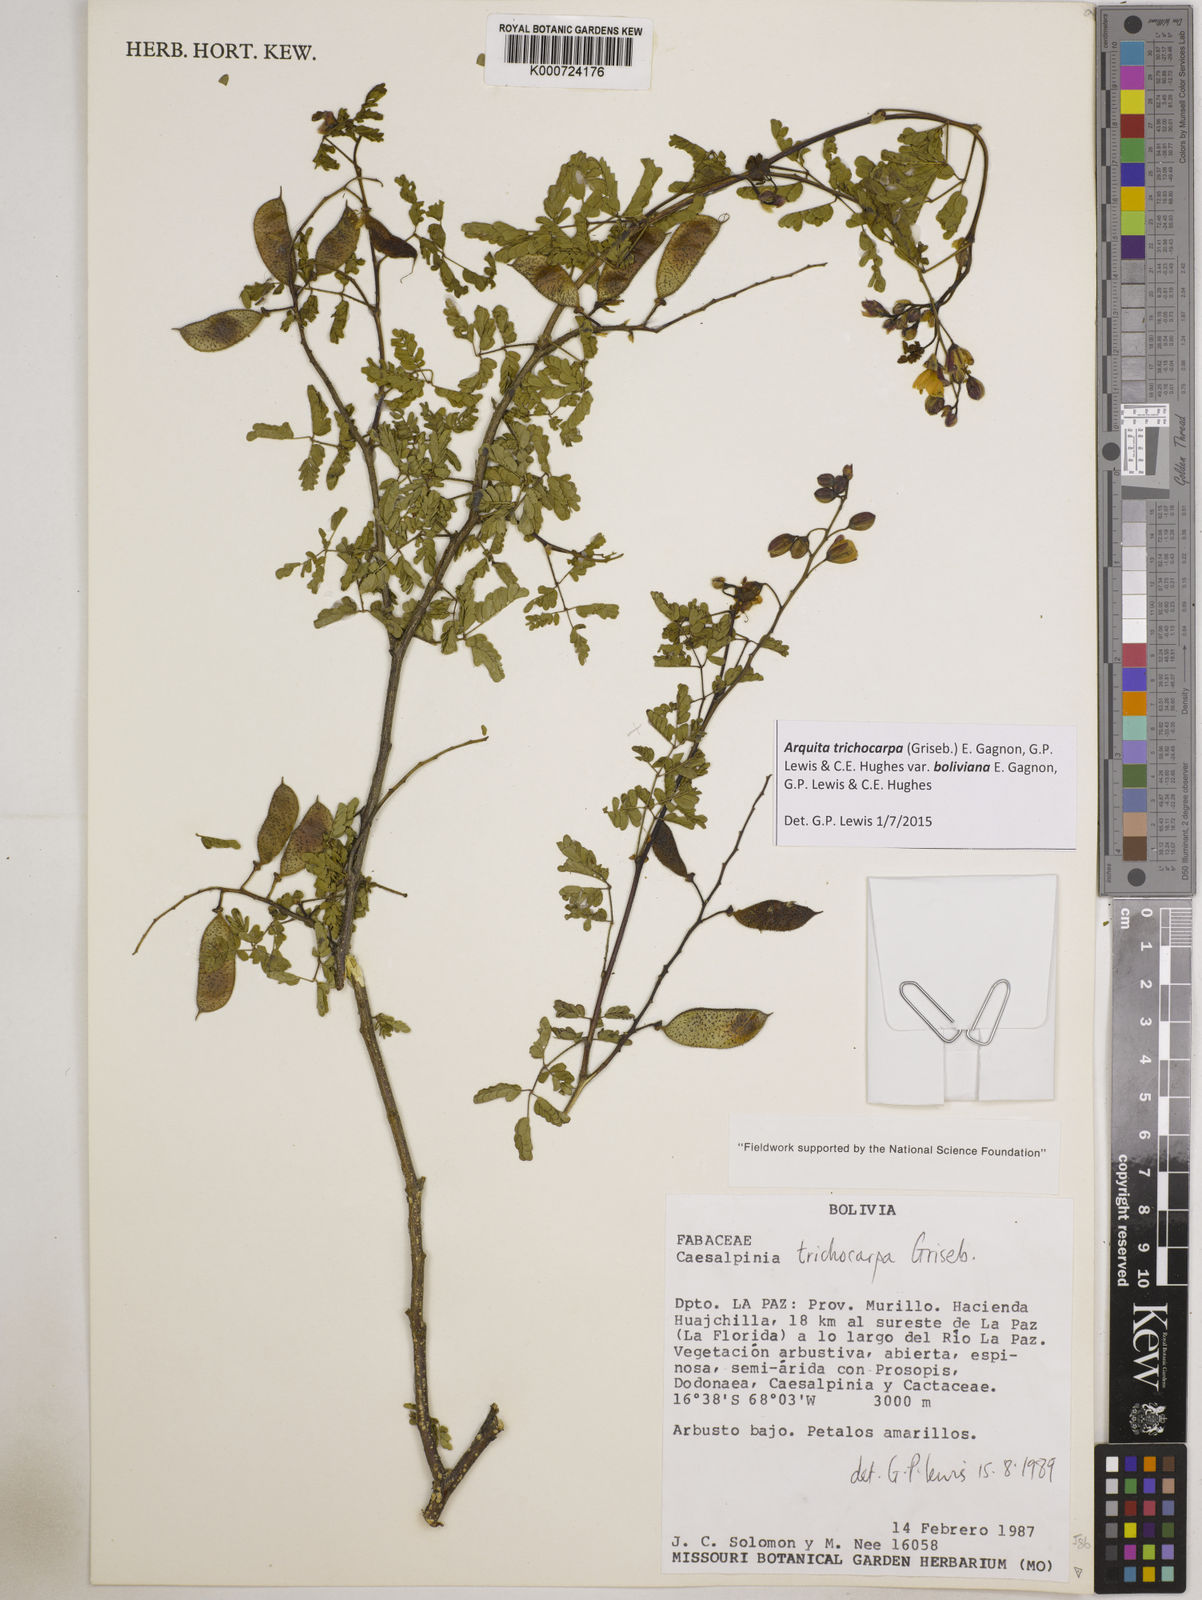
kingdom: Plantae
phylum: Tracheophyta
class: Magnoliopsida
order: Fabales
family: Fabaceae
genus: Arquita
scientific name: Arquita trichocarpa
